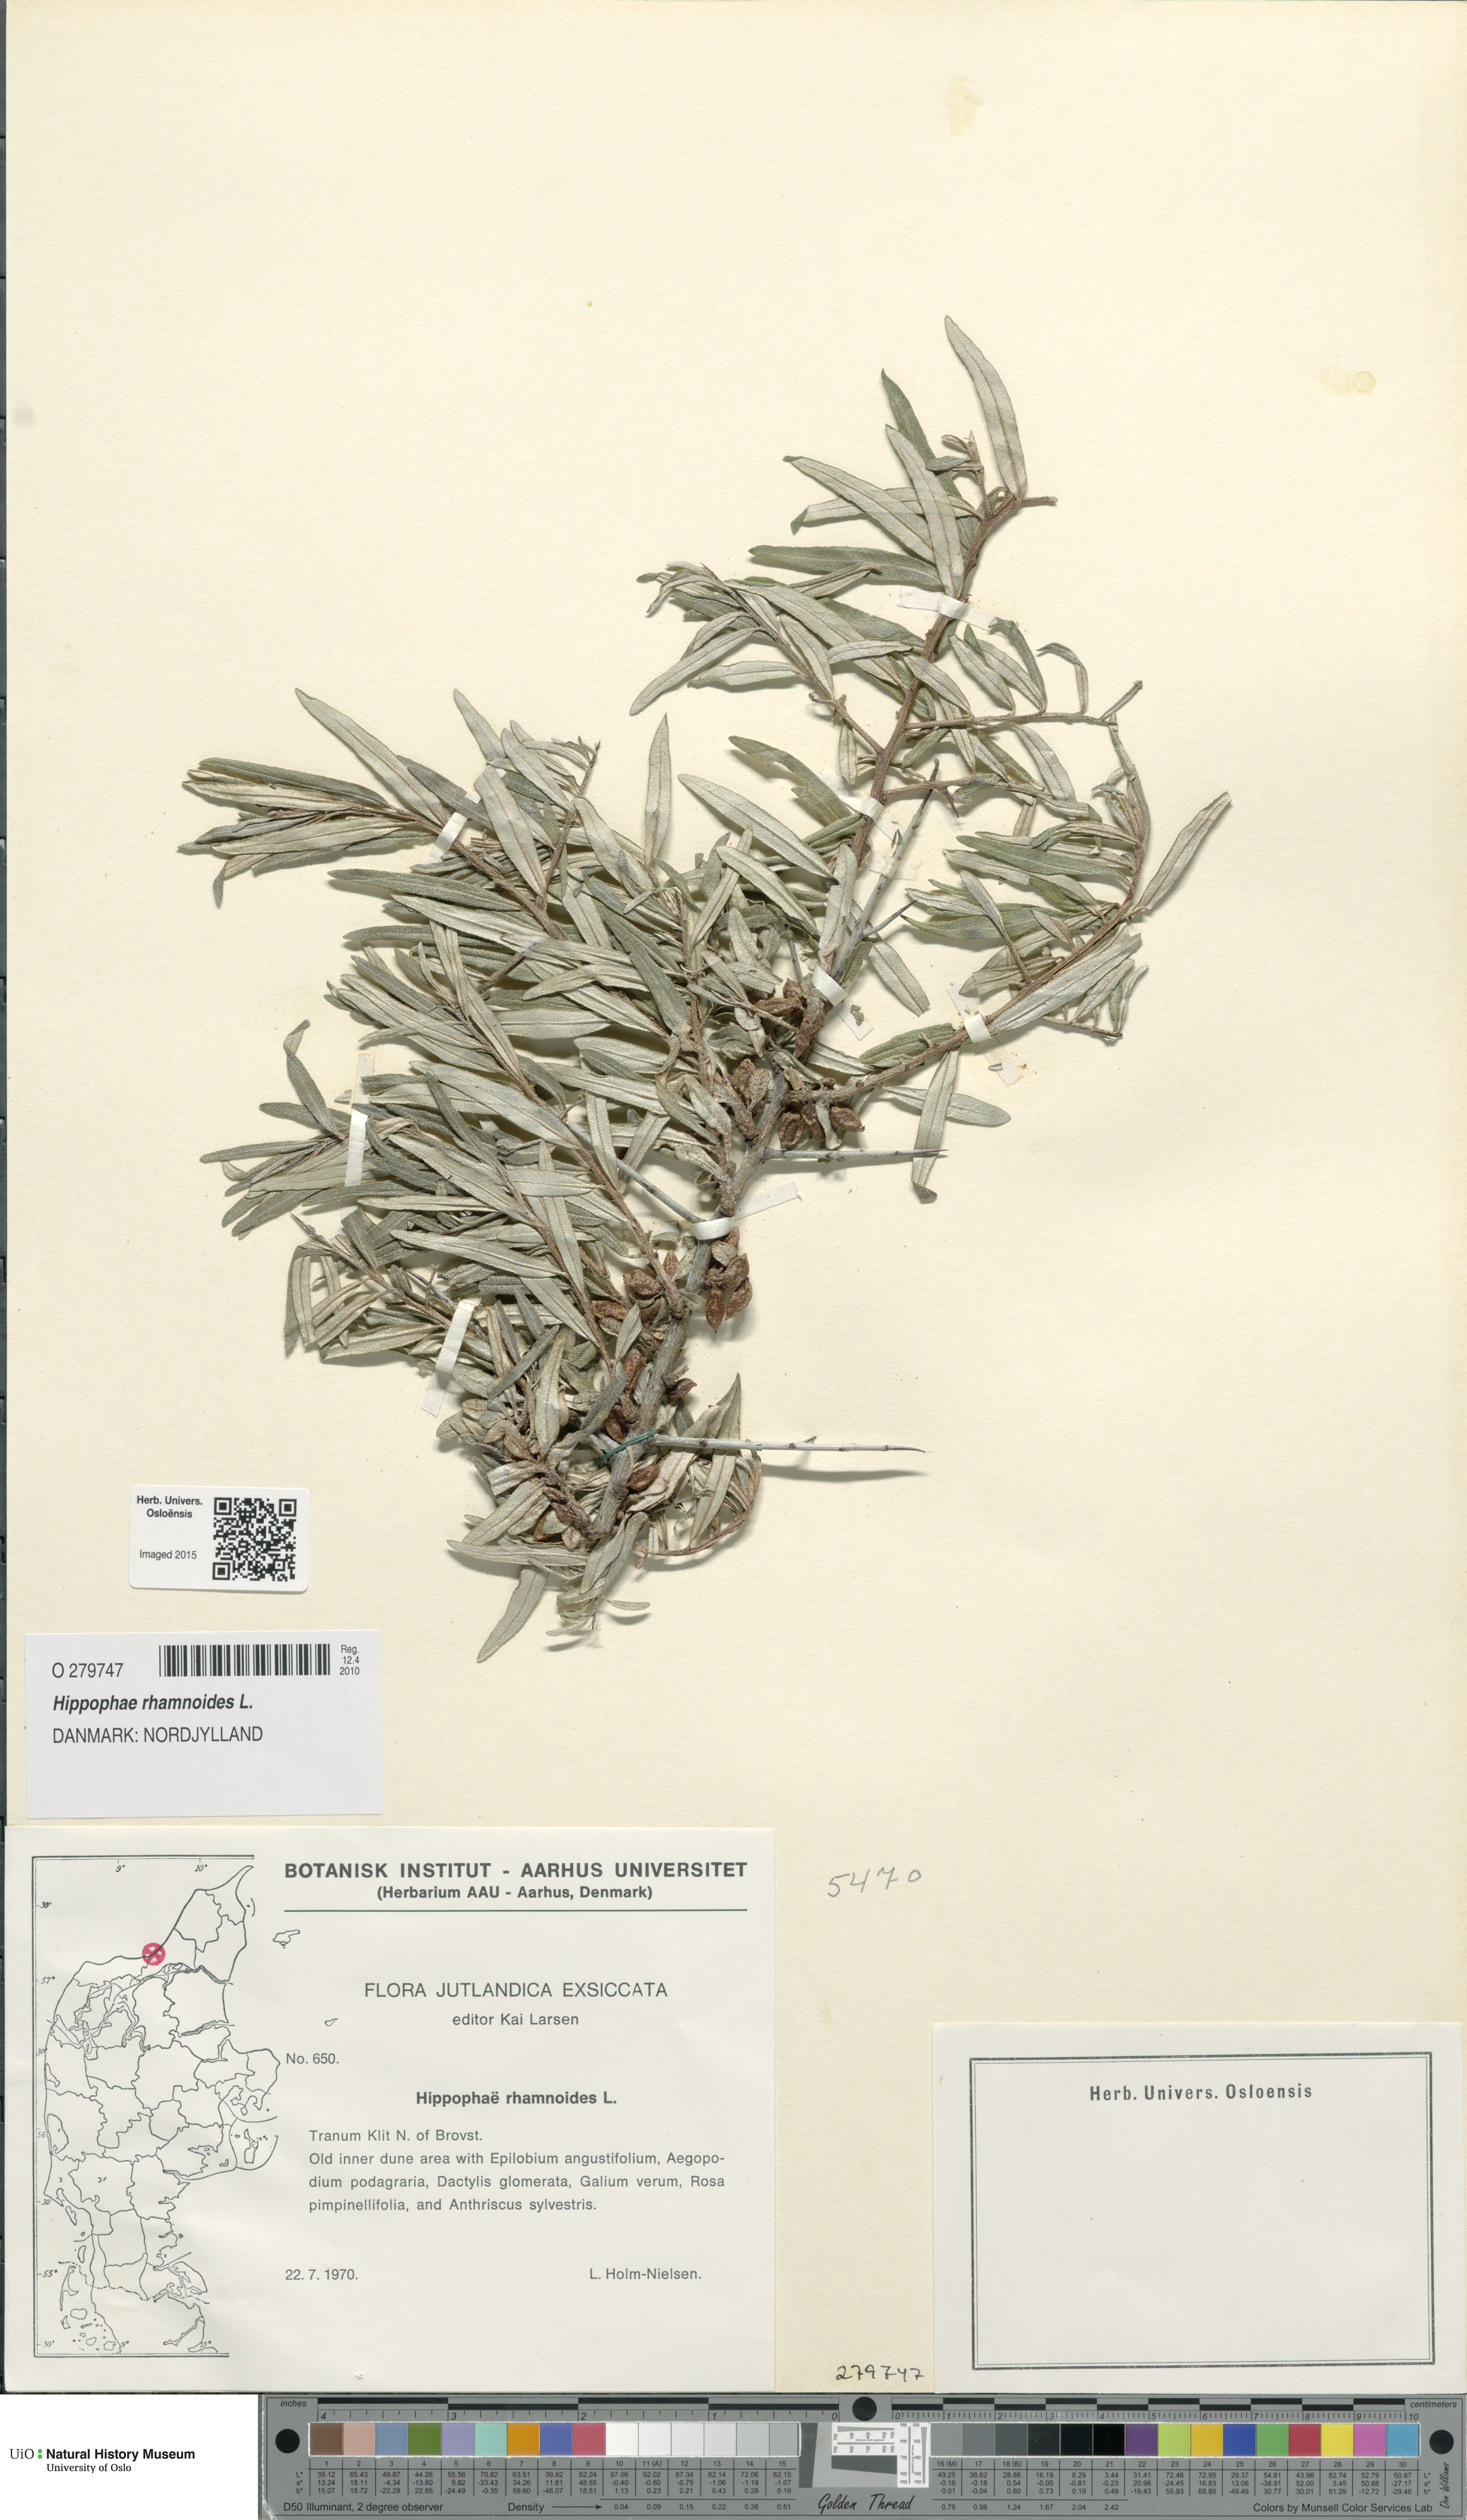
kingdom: Plantae
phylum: Tracheophyta
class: Magnoliopsida
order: Rosales
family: Elaeagnaceae
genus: Hippophae
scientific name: Hippophae rhamnoides
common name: Sea-buckthorn
